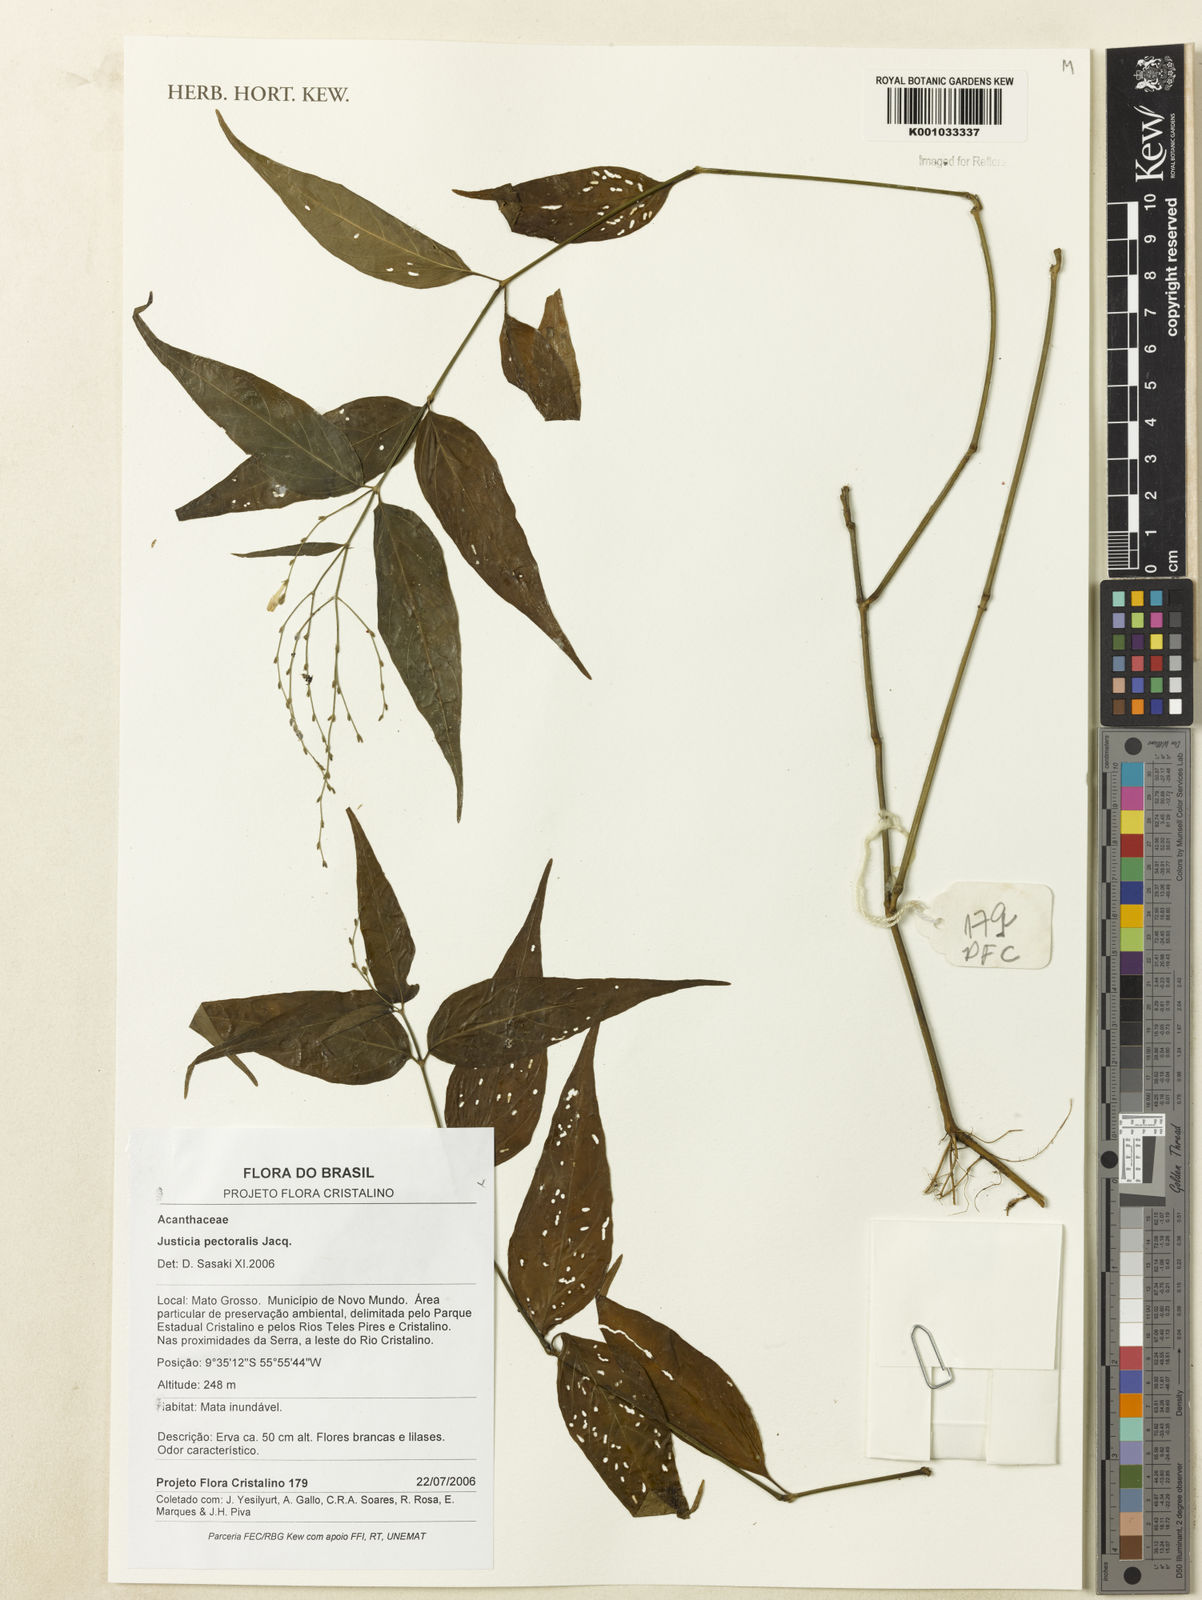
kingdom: Plantae
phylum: Tracheophyta
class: Magnoliopsida
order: Lamiales
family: Acanthaceae
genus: Dianthera
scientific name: Dianthera pectoralis
